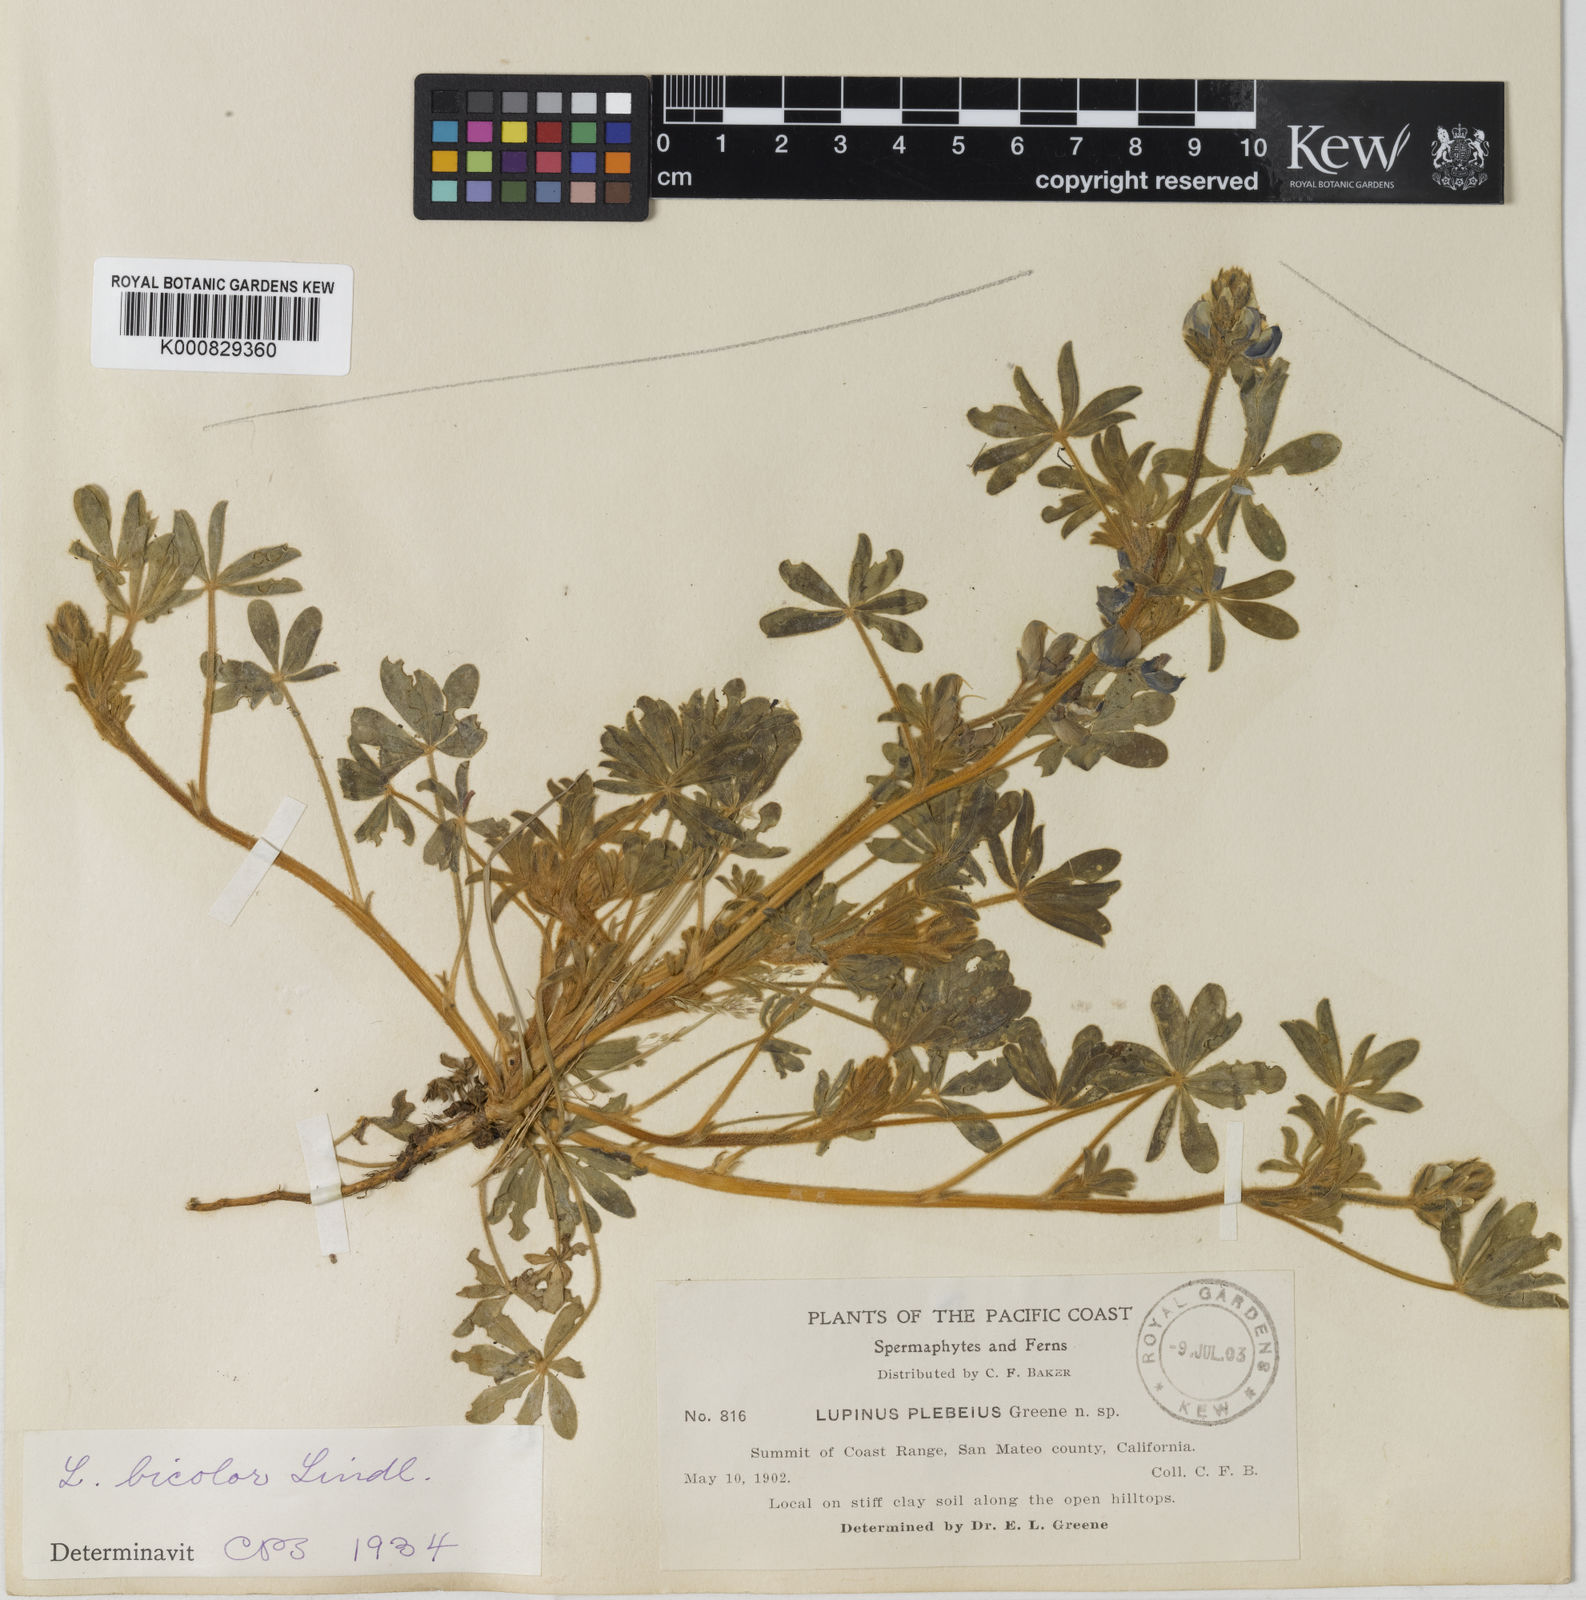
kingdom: Plantae
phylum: Tracheophyta
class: Magnoliopsida
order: Fabales
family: Fabaceae
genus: Lupinus
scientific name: Lupinus bicolor
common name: Miniature lupine
